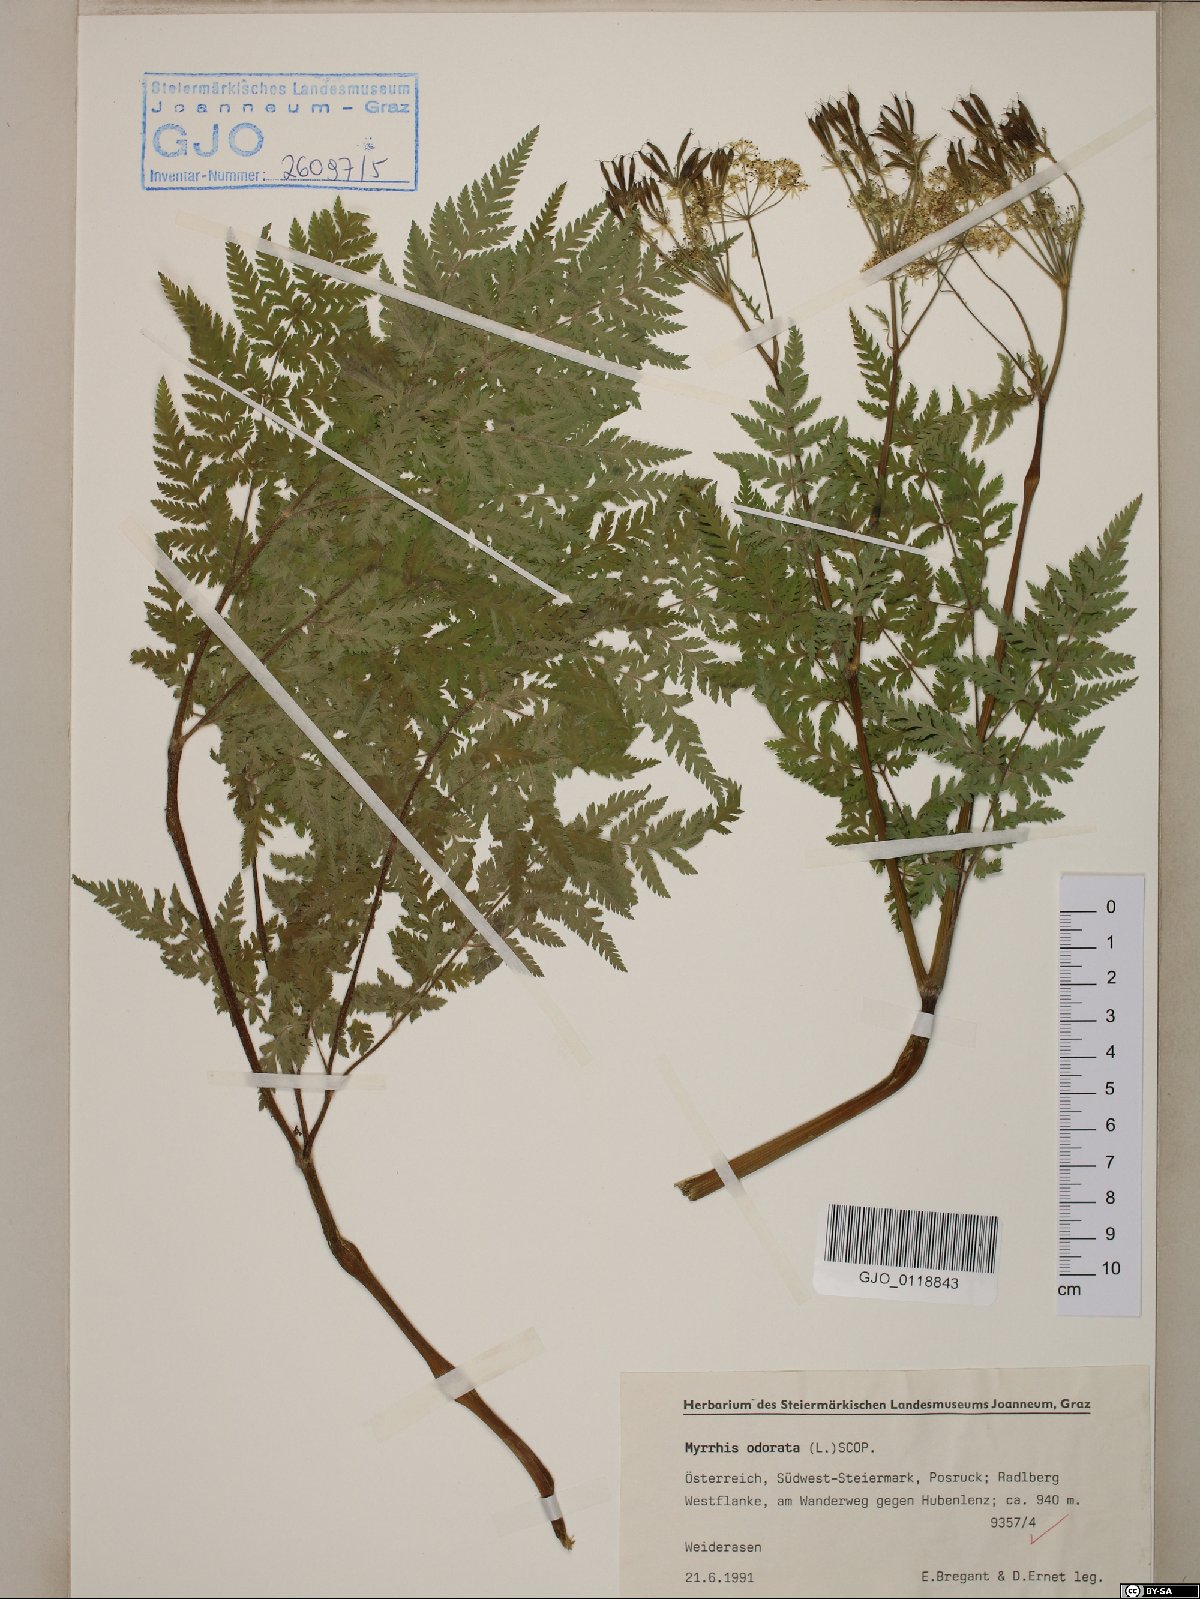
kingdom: Plantae
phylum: Tracheophyta
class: Magnoliopsida
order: Apiales
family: Apiaceae
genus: Myrrhis
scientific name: Myrrhis odorata
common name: Sweet cicely
